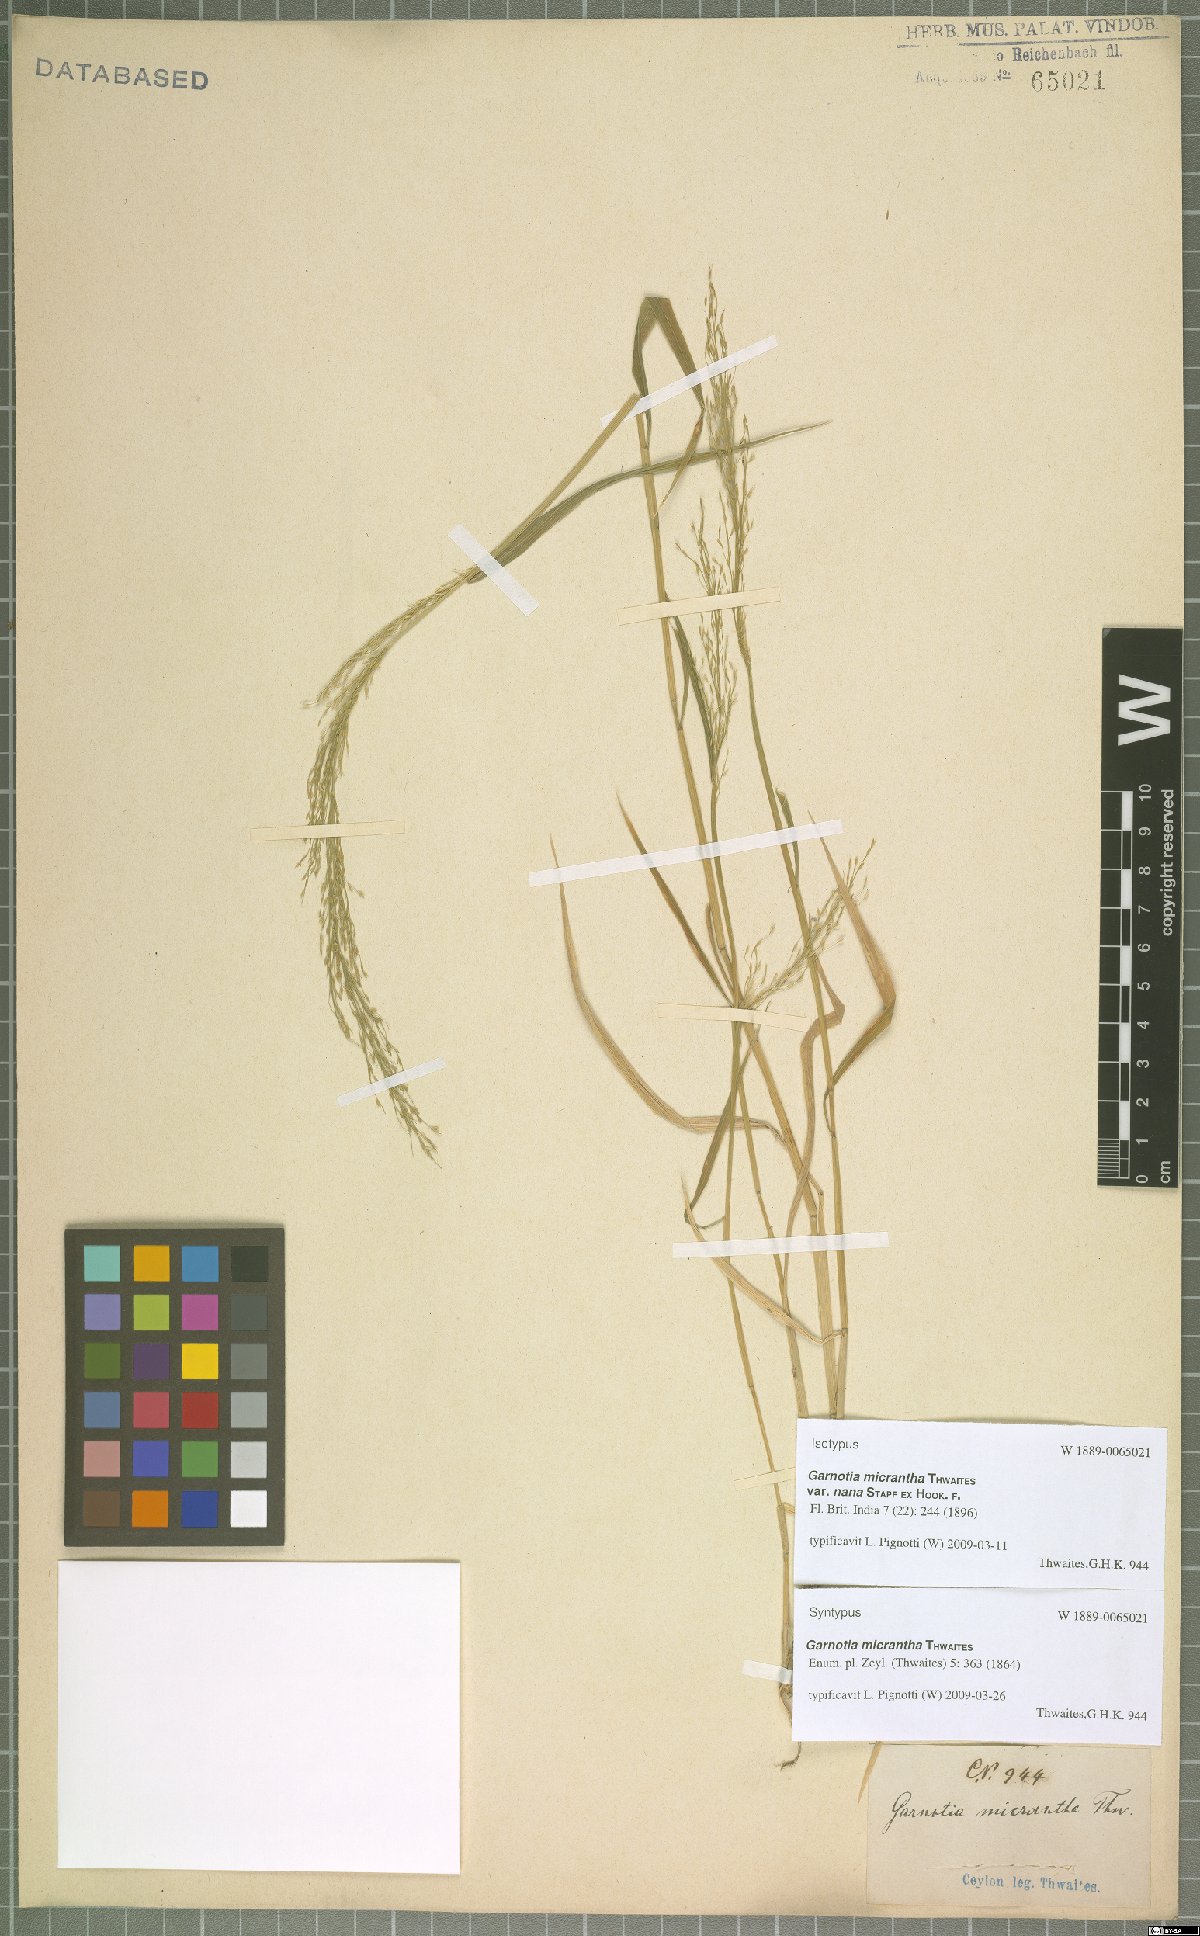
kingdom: Plantae
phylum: Tracheophyta
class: Liliopsida
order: Poales
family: Poaceae
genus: Garnotia
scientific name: Garnotia micrantha
